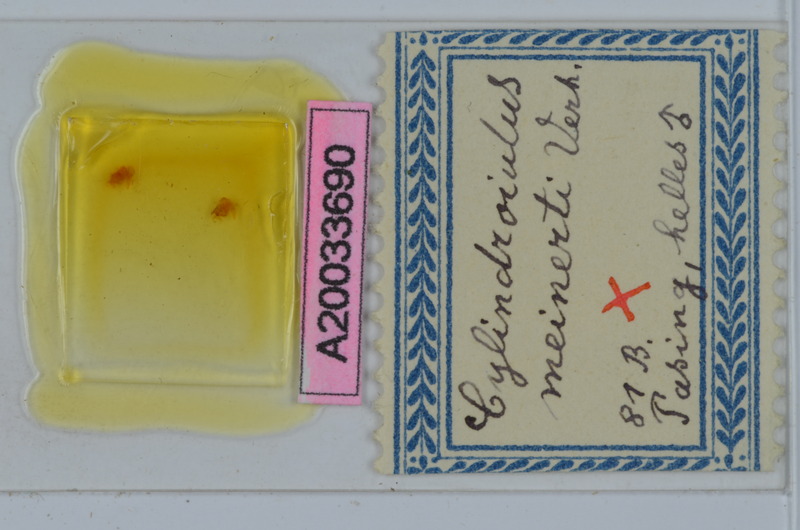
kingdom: Animalia
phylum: Arthropoda
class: Diplopoda
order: Julida
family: Julidae
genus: Cylindroiulus
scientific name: Cylindroiulus meinerti
